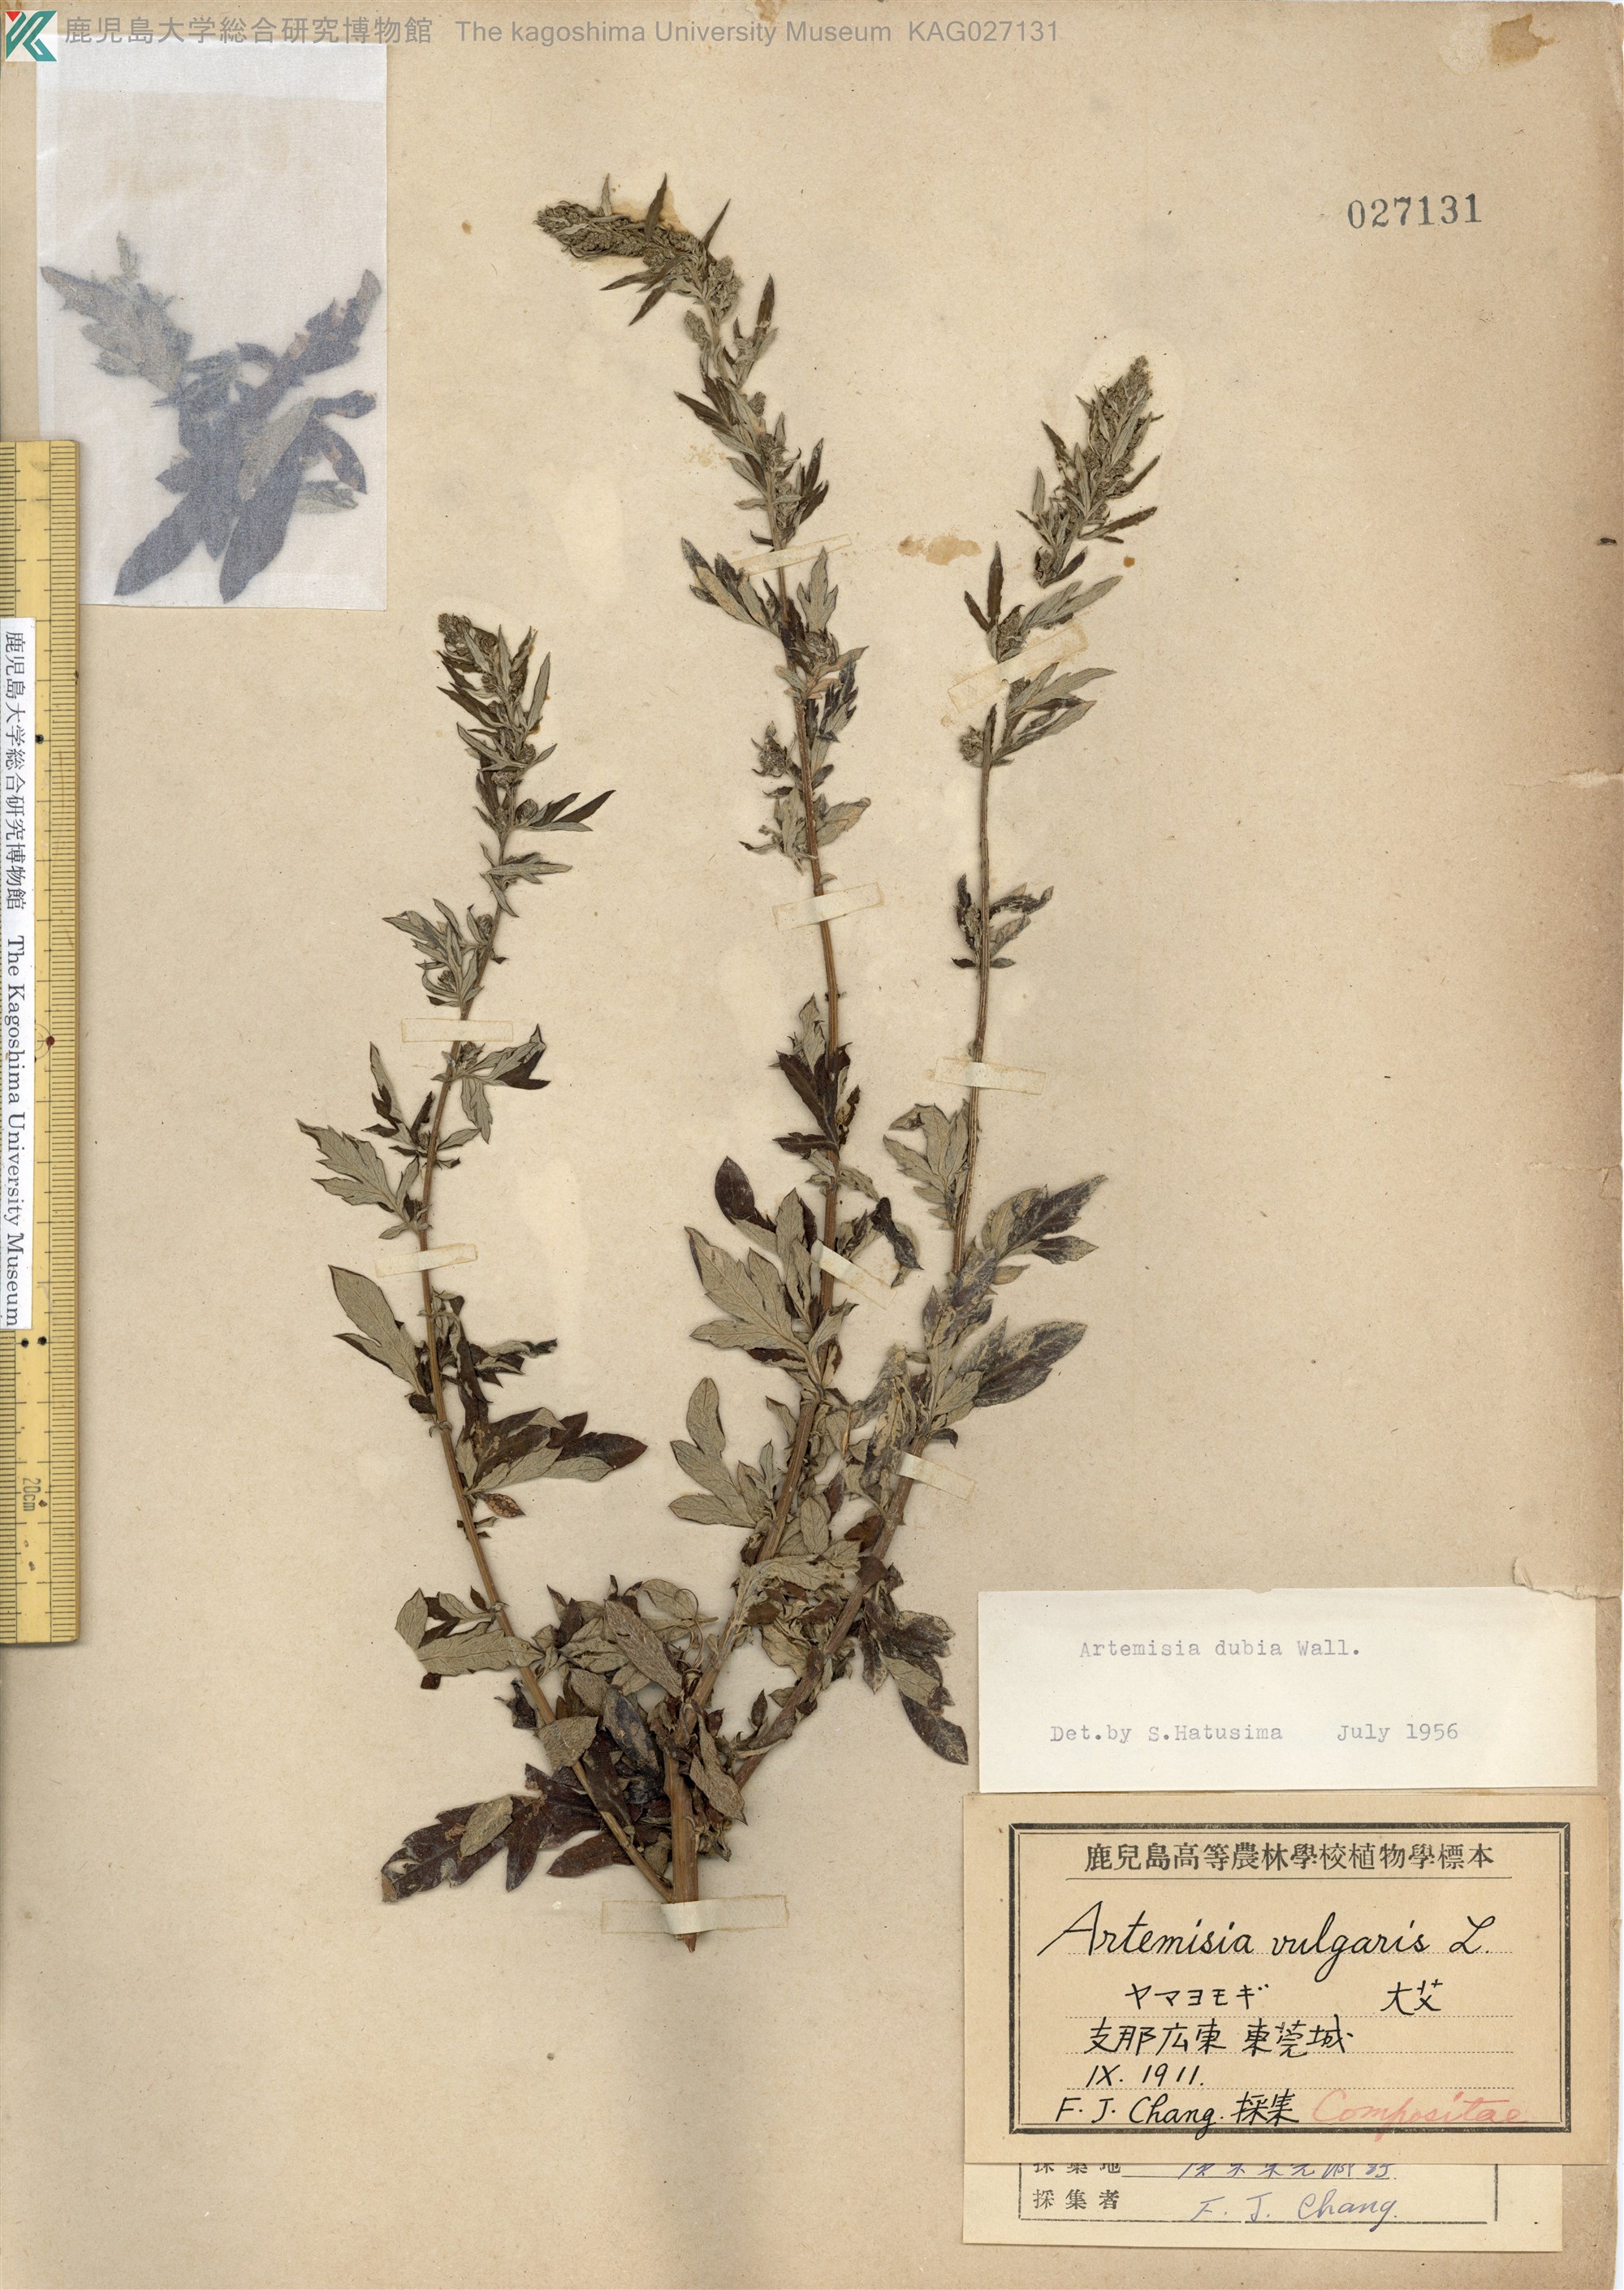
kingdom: Plantae
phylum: Tracheophyta
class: Magnoliopsida
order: Asterales
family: Asteraceae
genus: Artemisia
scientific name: Artemisia indica
